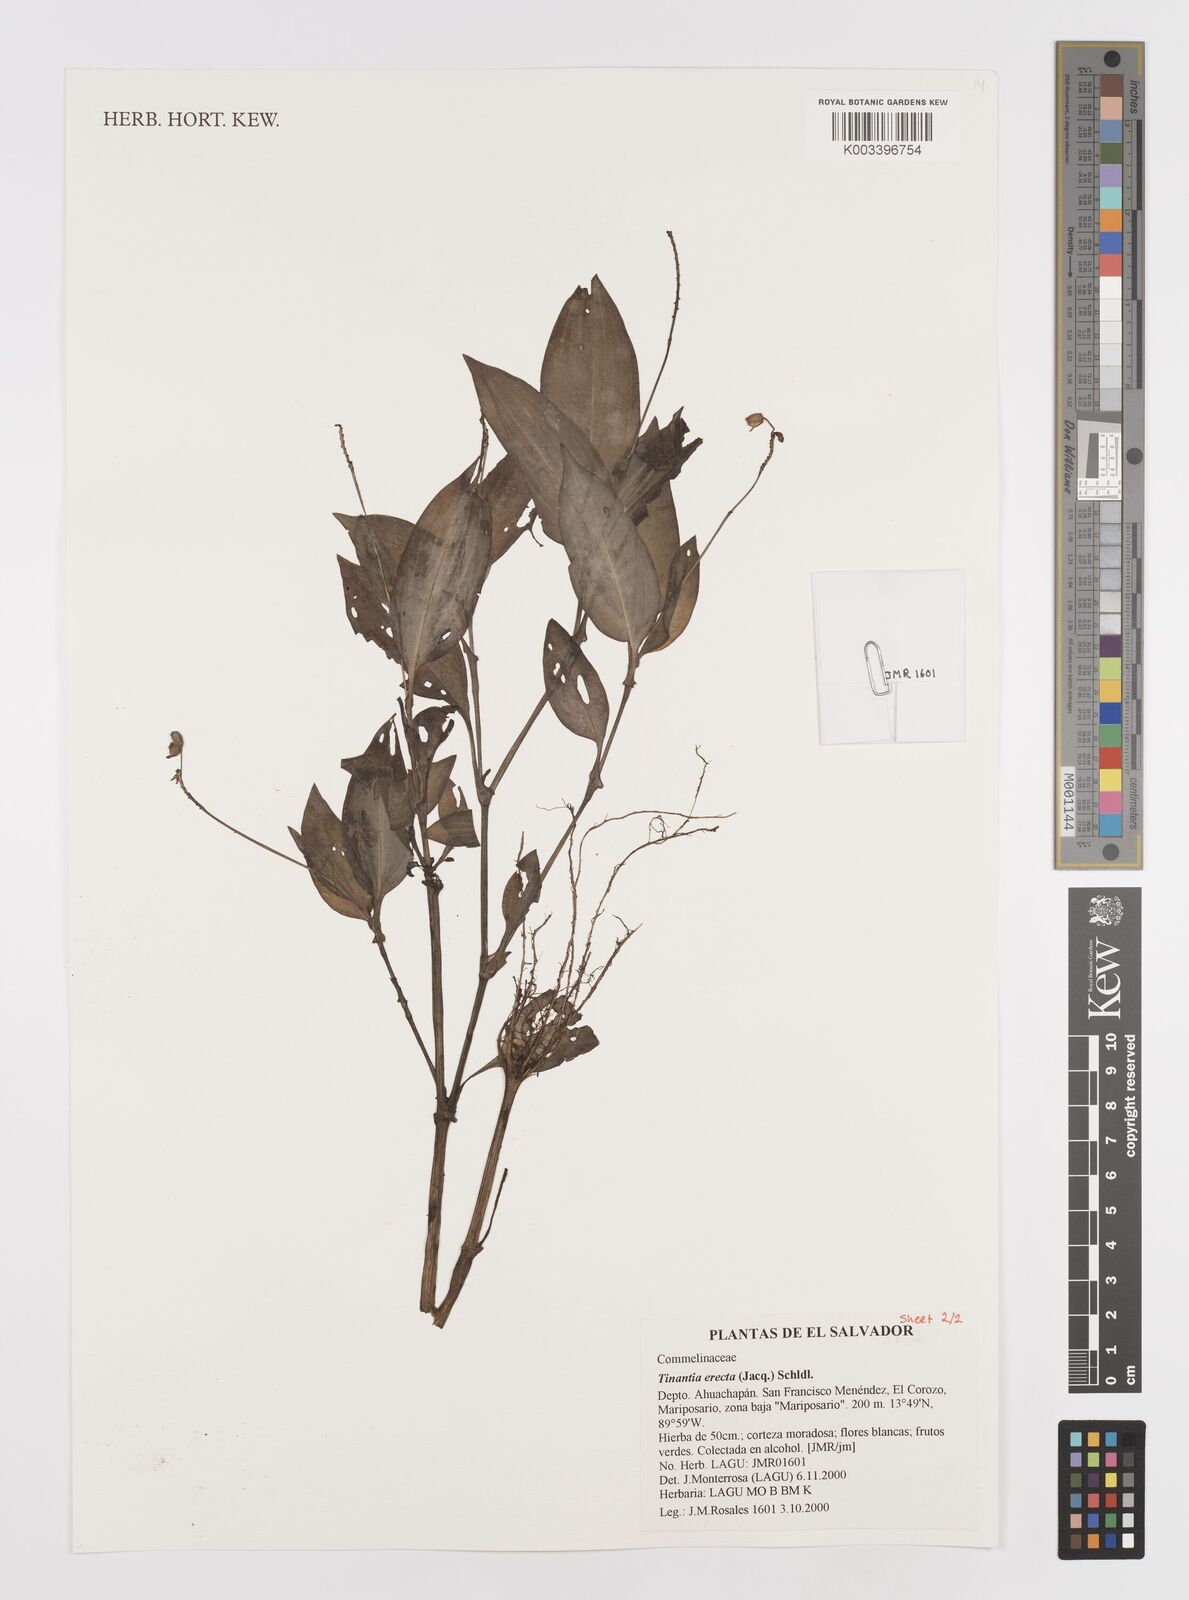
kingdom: Plantae
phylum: Tracheophyta
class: Liliopsida
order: Commelinales
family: Commelinaceae
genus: Tinantia
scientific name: Tinantia erecta
